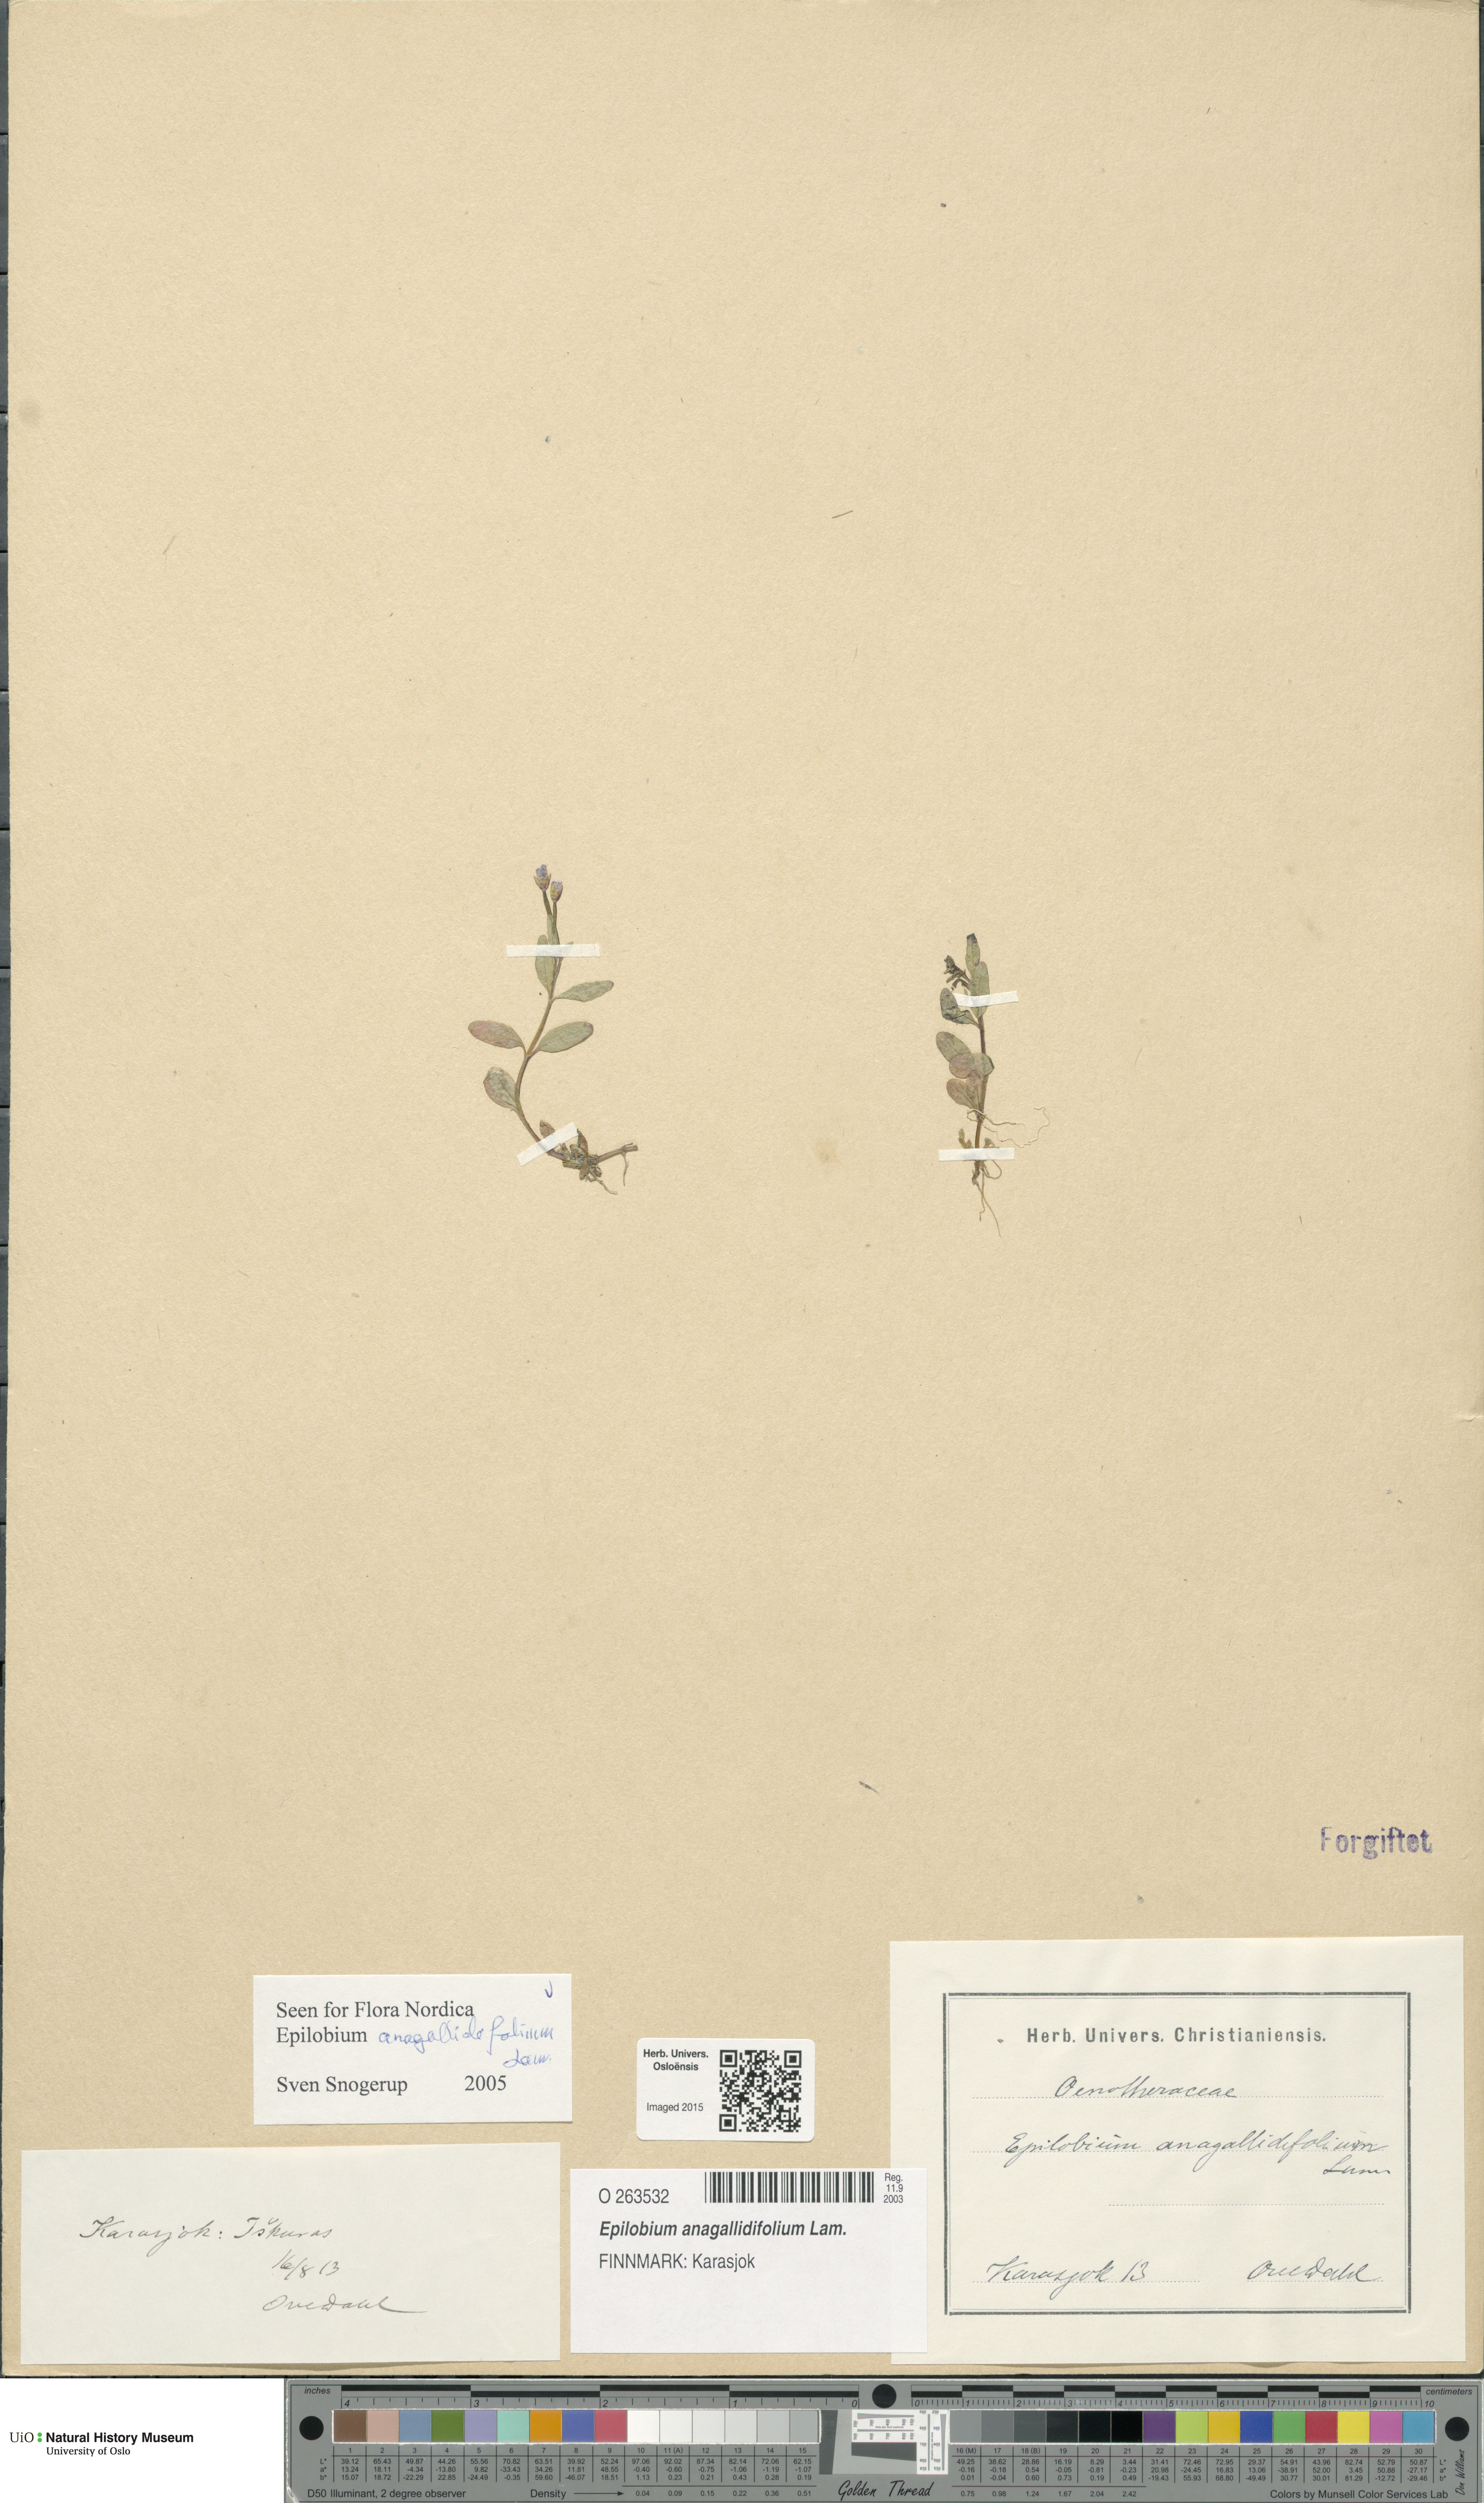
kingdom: Plantae
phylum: Tracheophyta
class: Magnoliopsida
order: Myrtales
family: Onagraceae
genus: Epilobium
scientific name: Epilobium anagallidifolium
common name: Alpine willowherb
